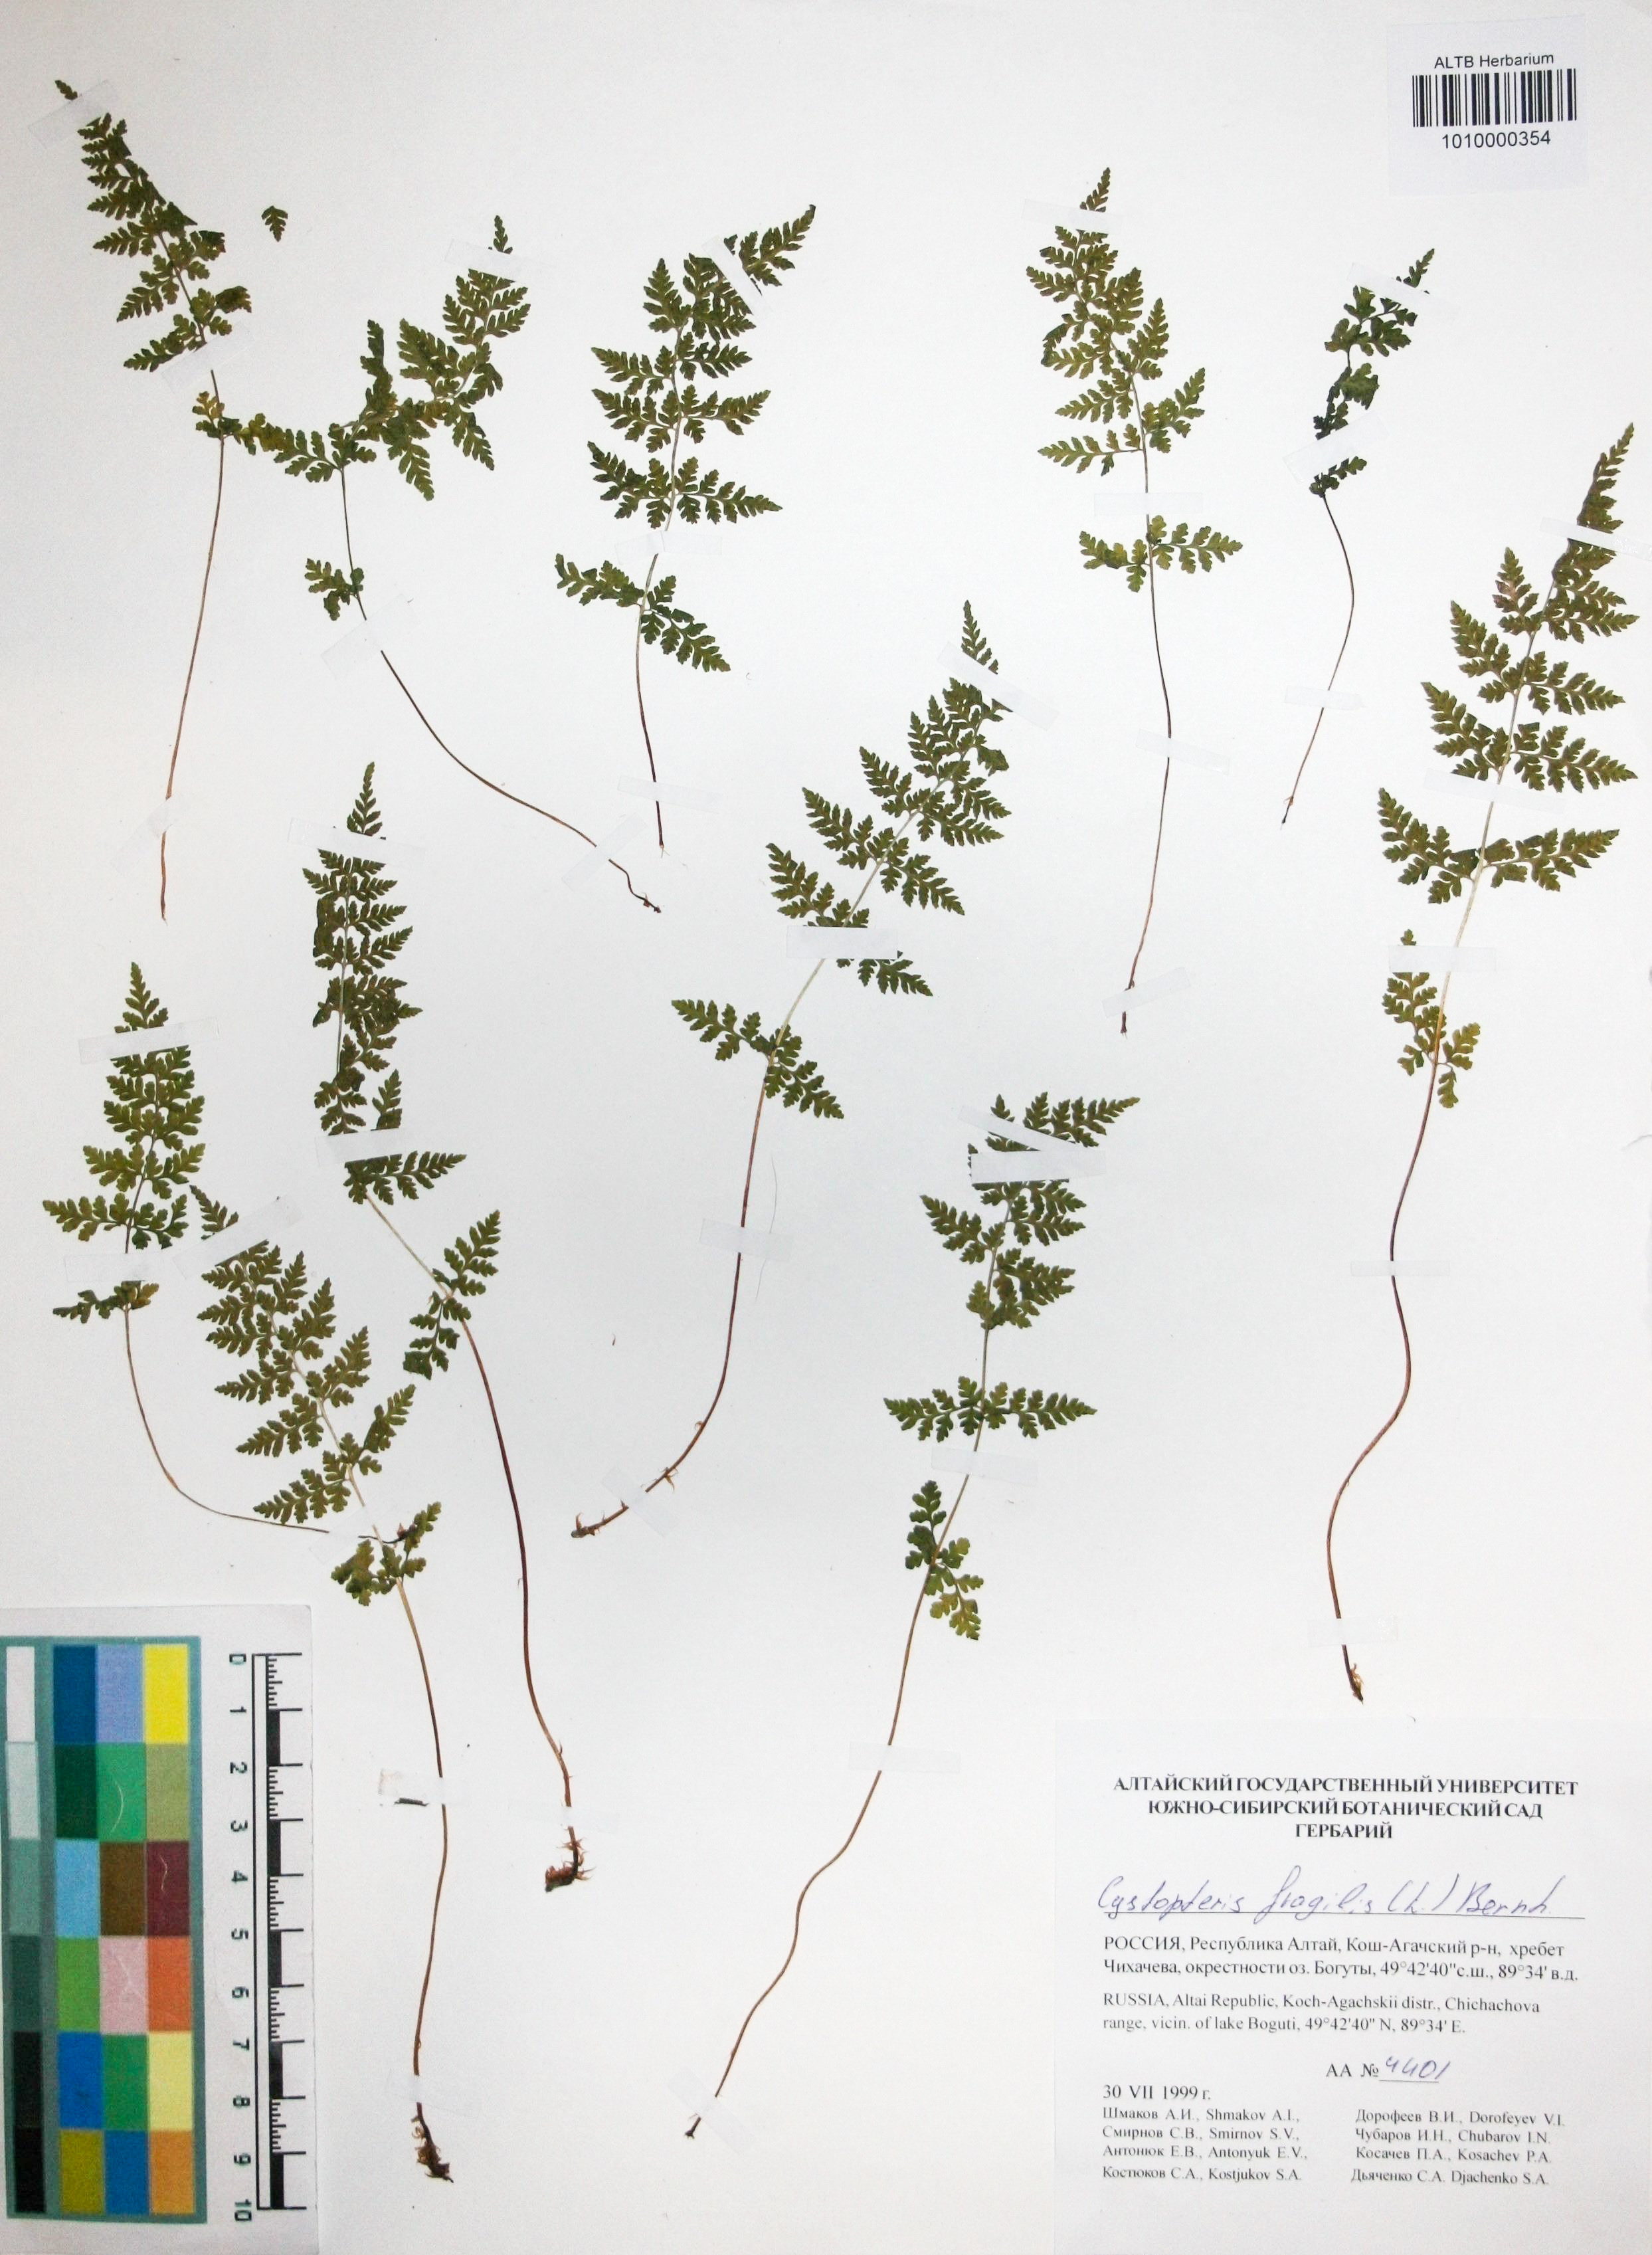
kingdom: Plantae
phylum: Tracheophyta
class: Polypodiopsida
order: Polypodiales
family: Cystopteridaceae
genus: Cystopteris
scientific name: Cystopteris fragilis
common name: Brittle bladder fern
